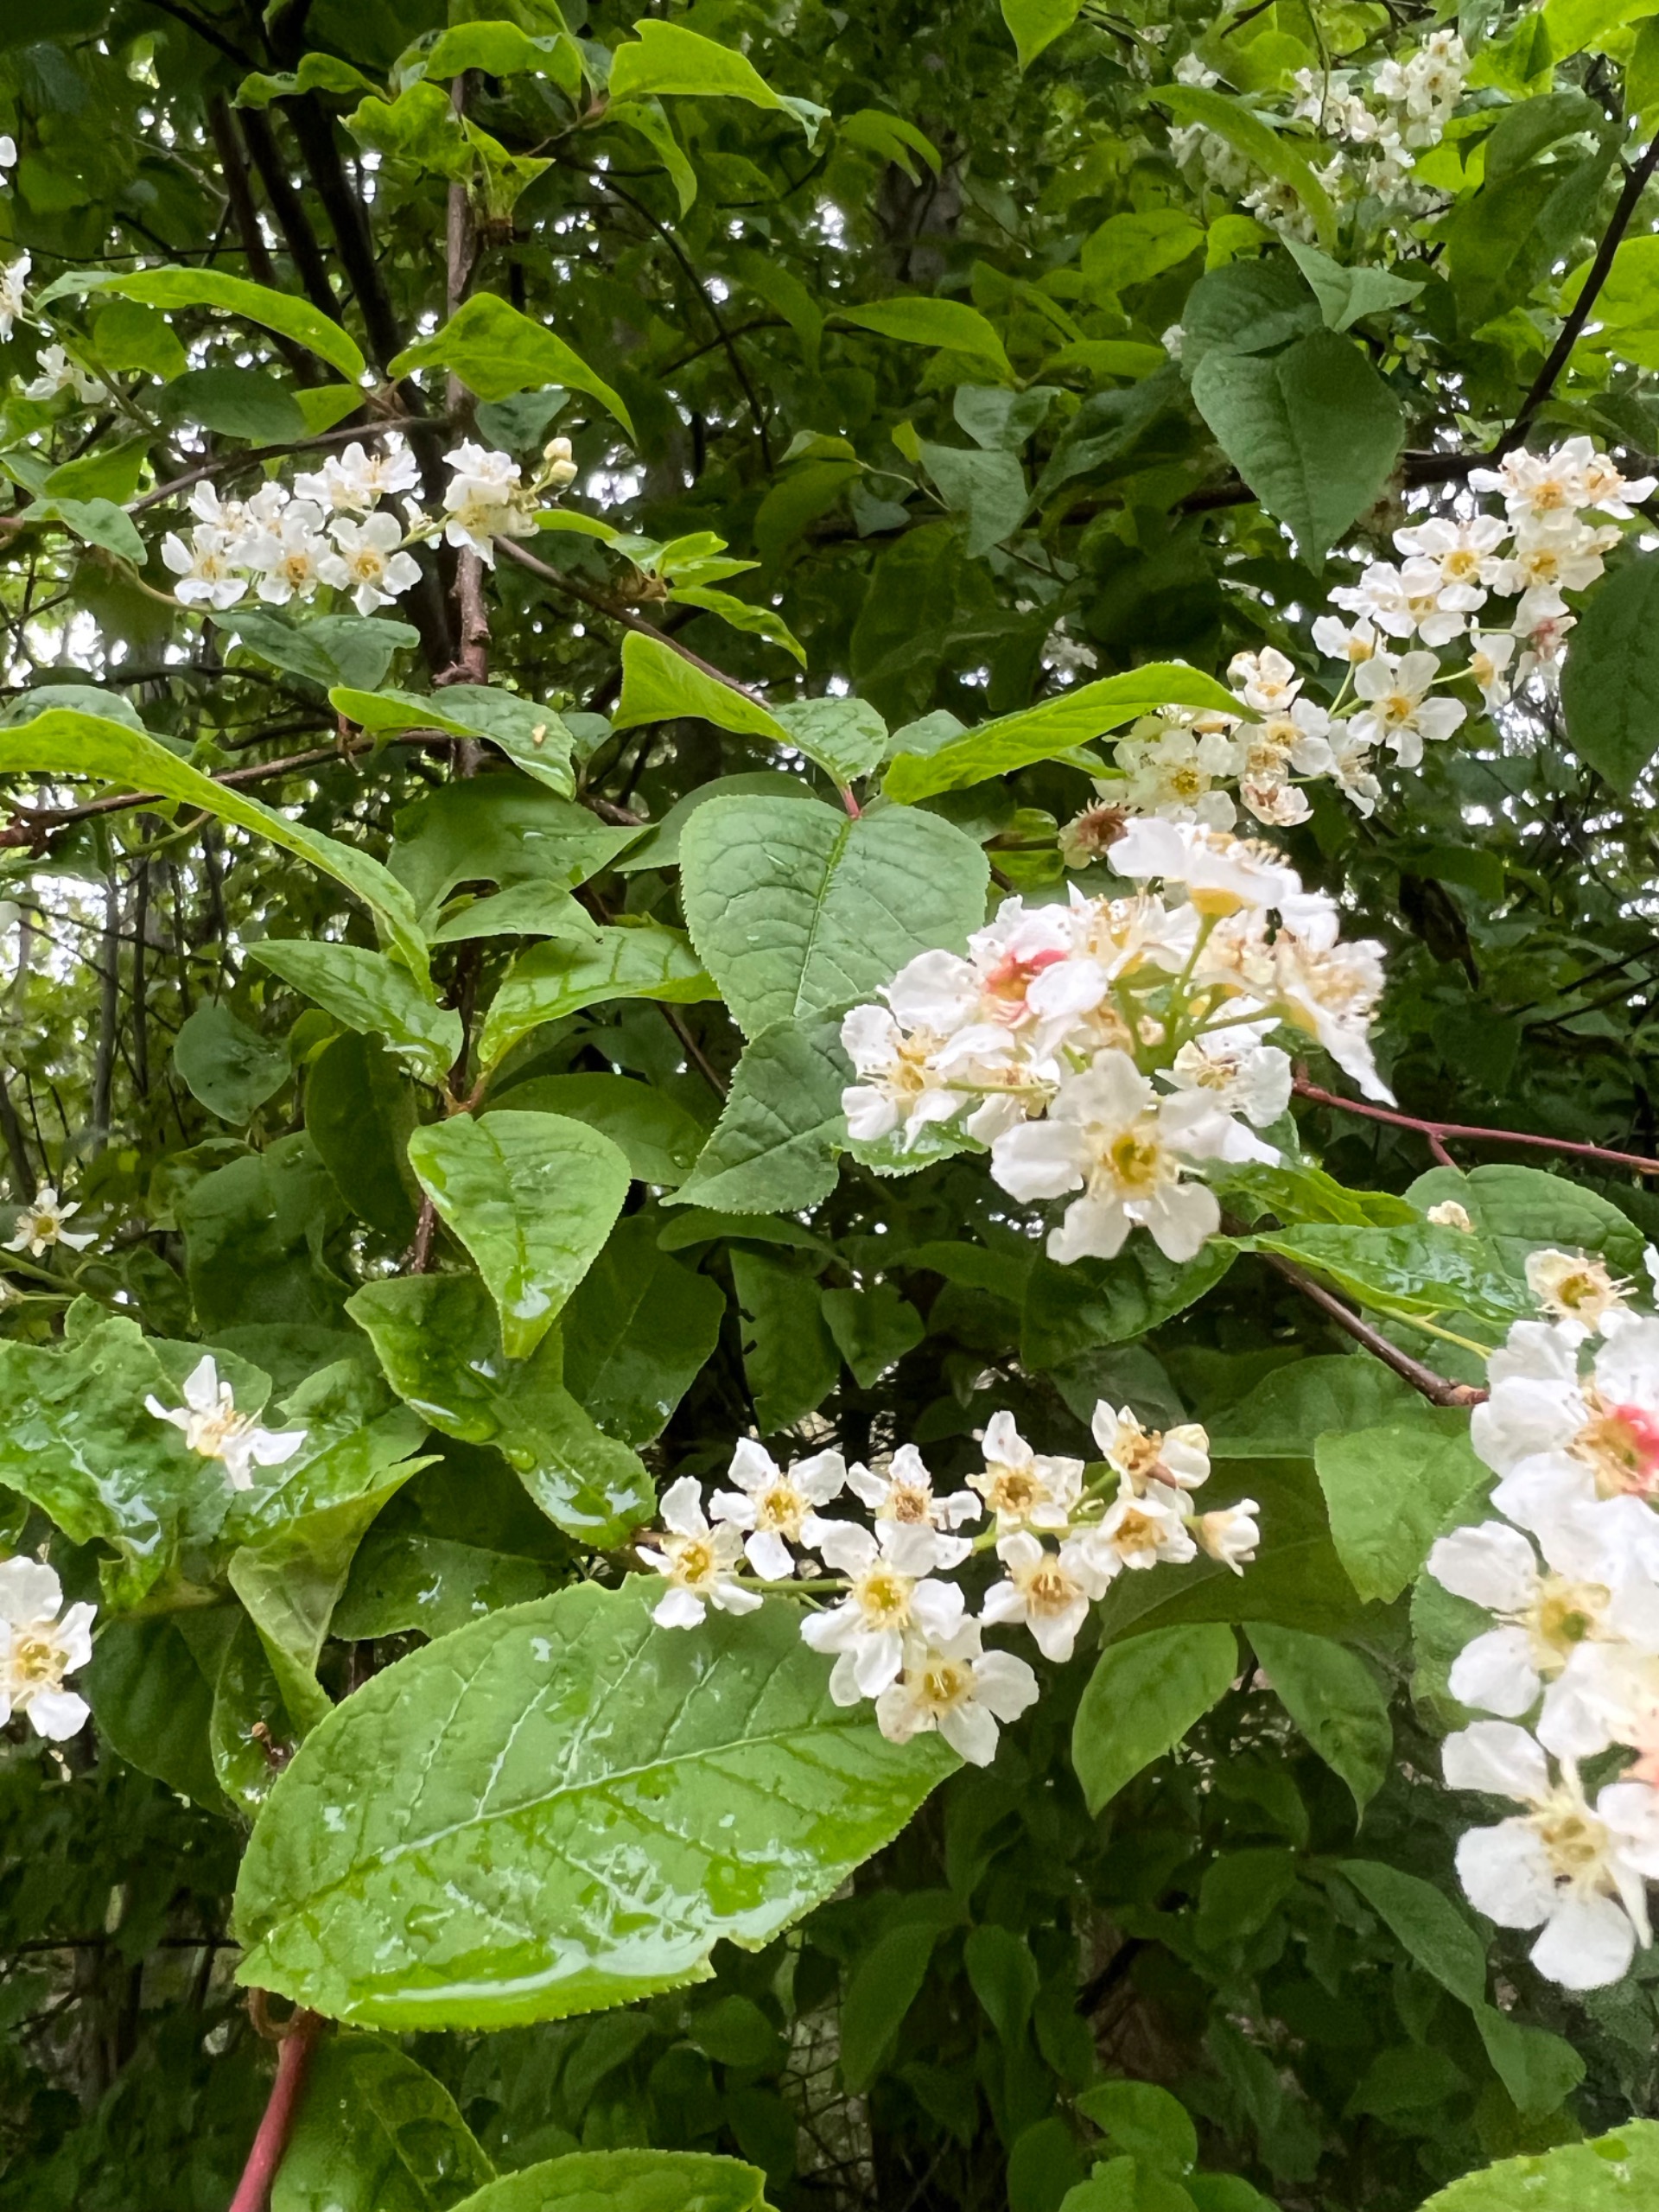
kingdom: Plantae
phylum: Tracheophyta
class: Magnoliopsida
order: Rosales
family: Rosaceae
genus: Prunus
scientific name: Prunus padus
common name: Almindelig hæg
